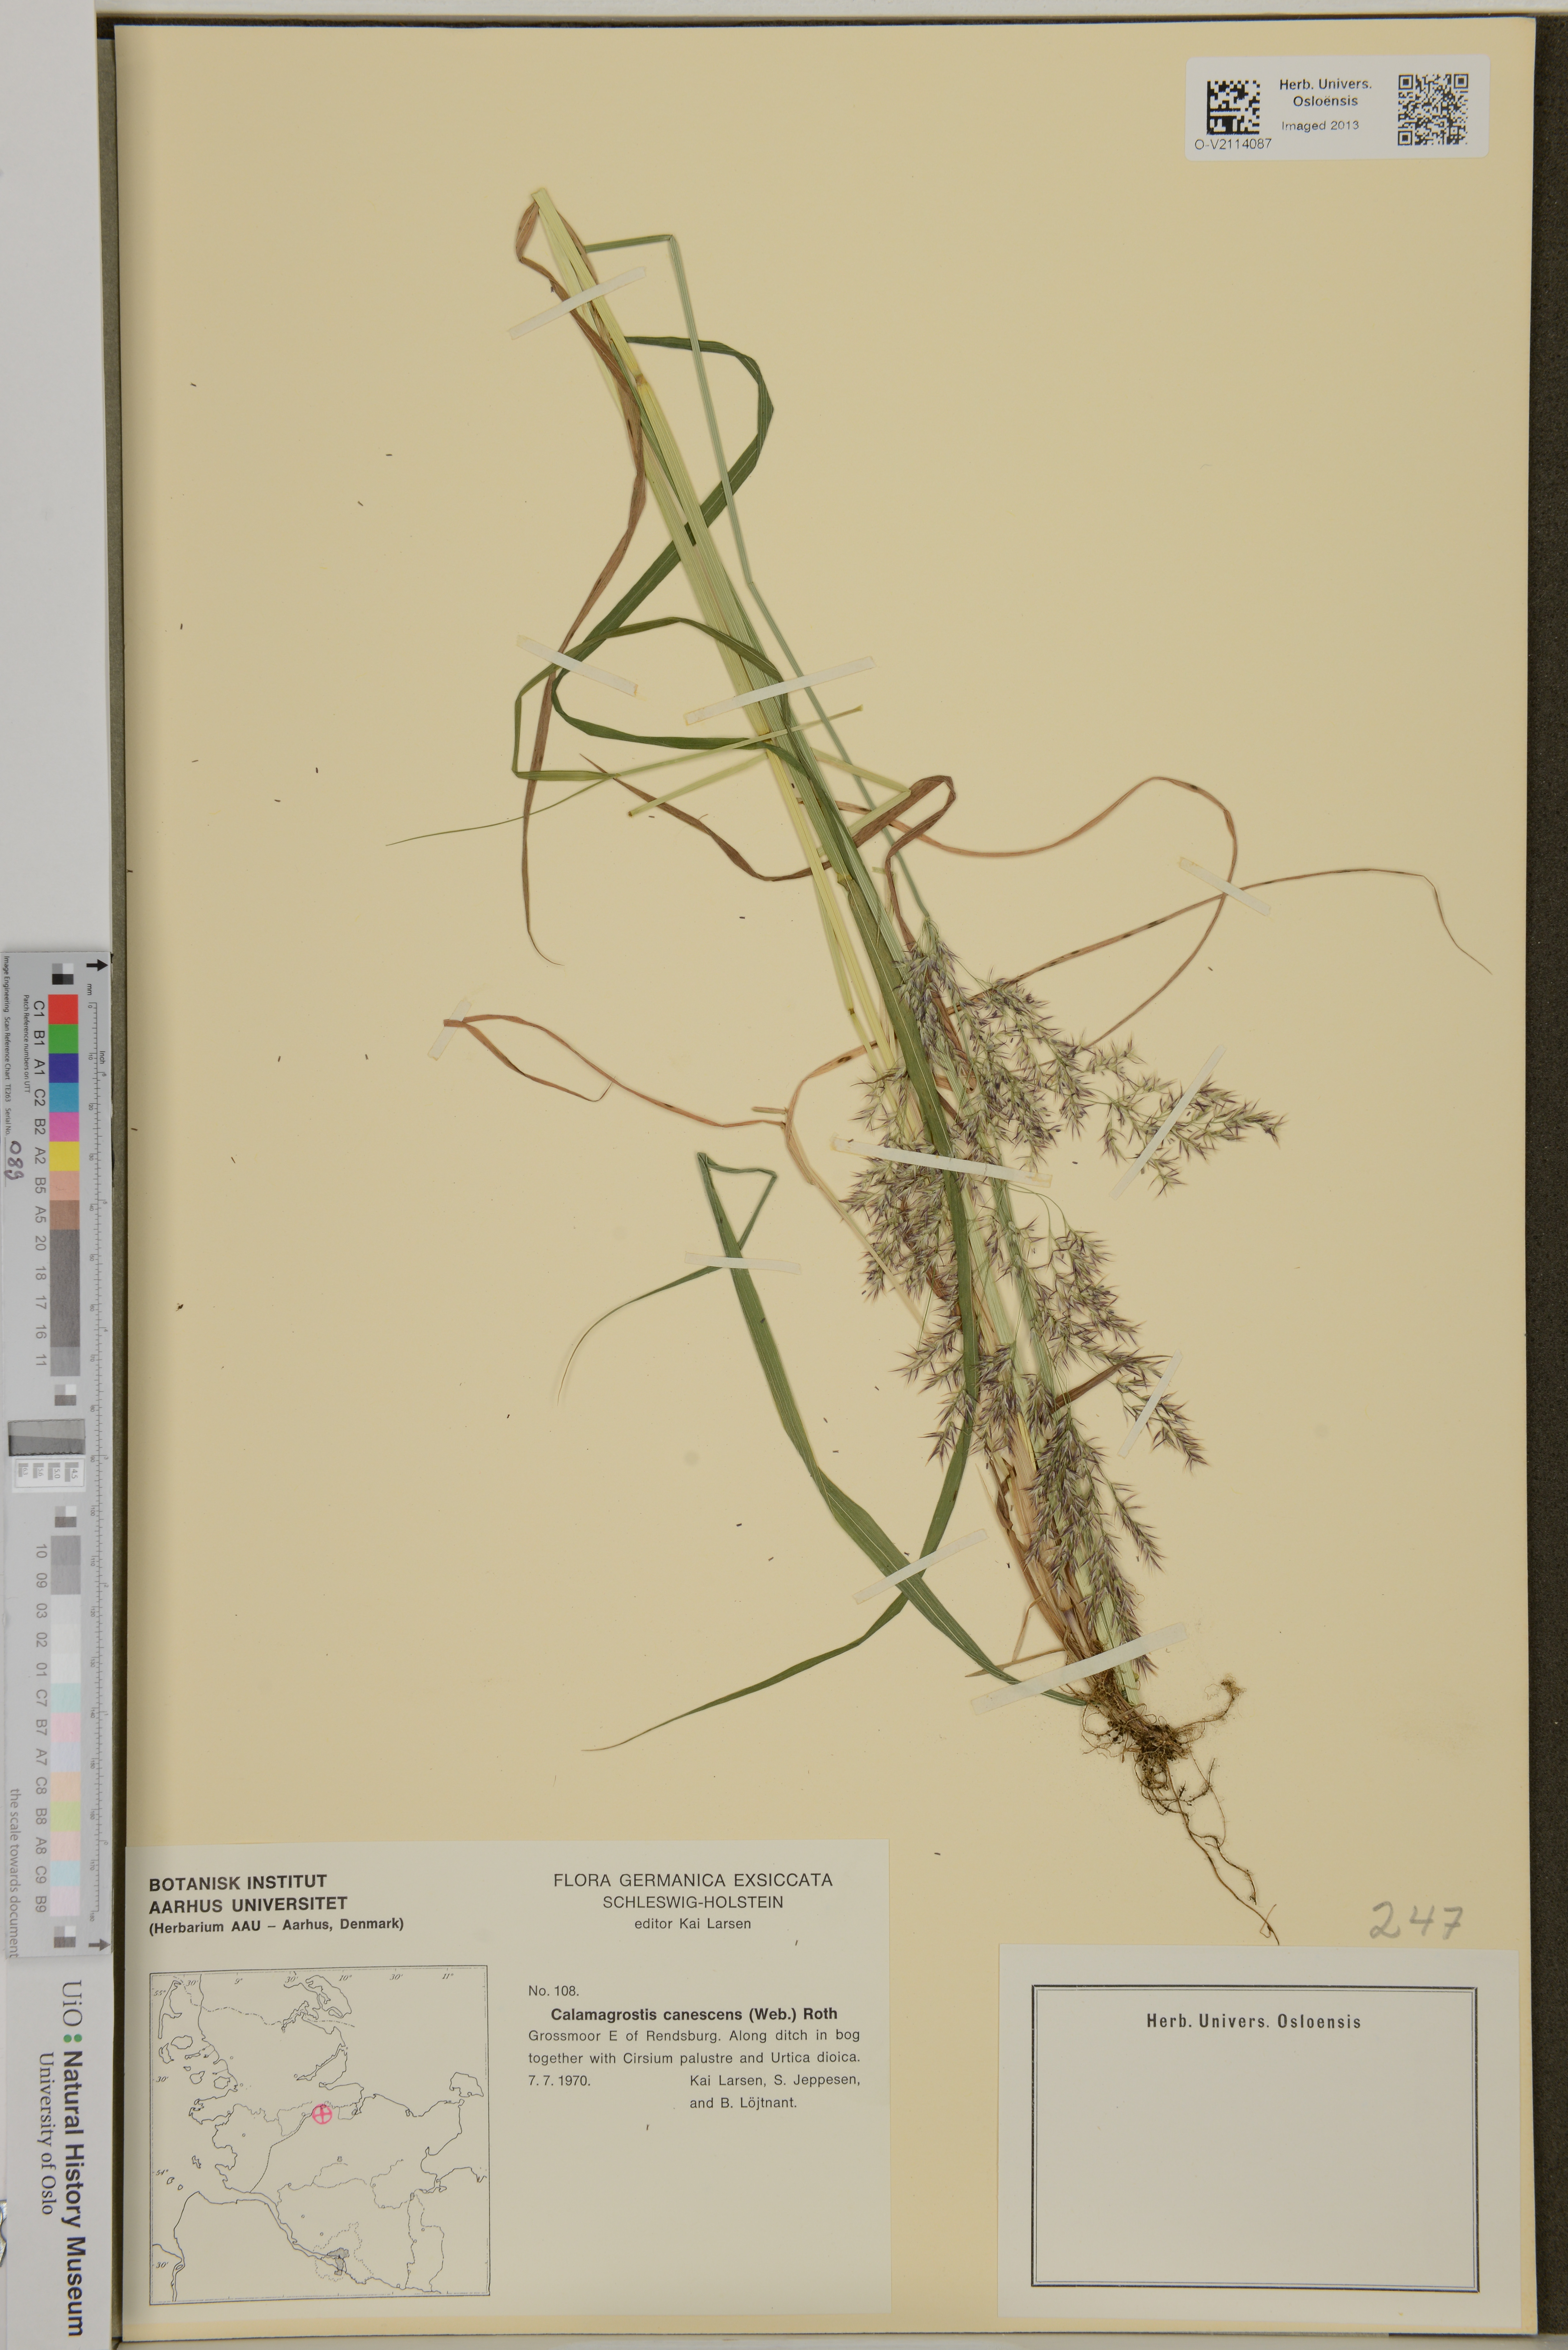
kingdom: Plantae
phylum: Tracheophyta
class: Liliopsida
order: Poales
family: Poaceae
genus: Calamagrostis
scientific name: Calamagrostis canescens
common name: Purple small-reed
